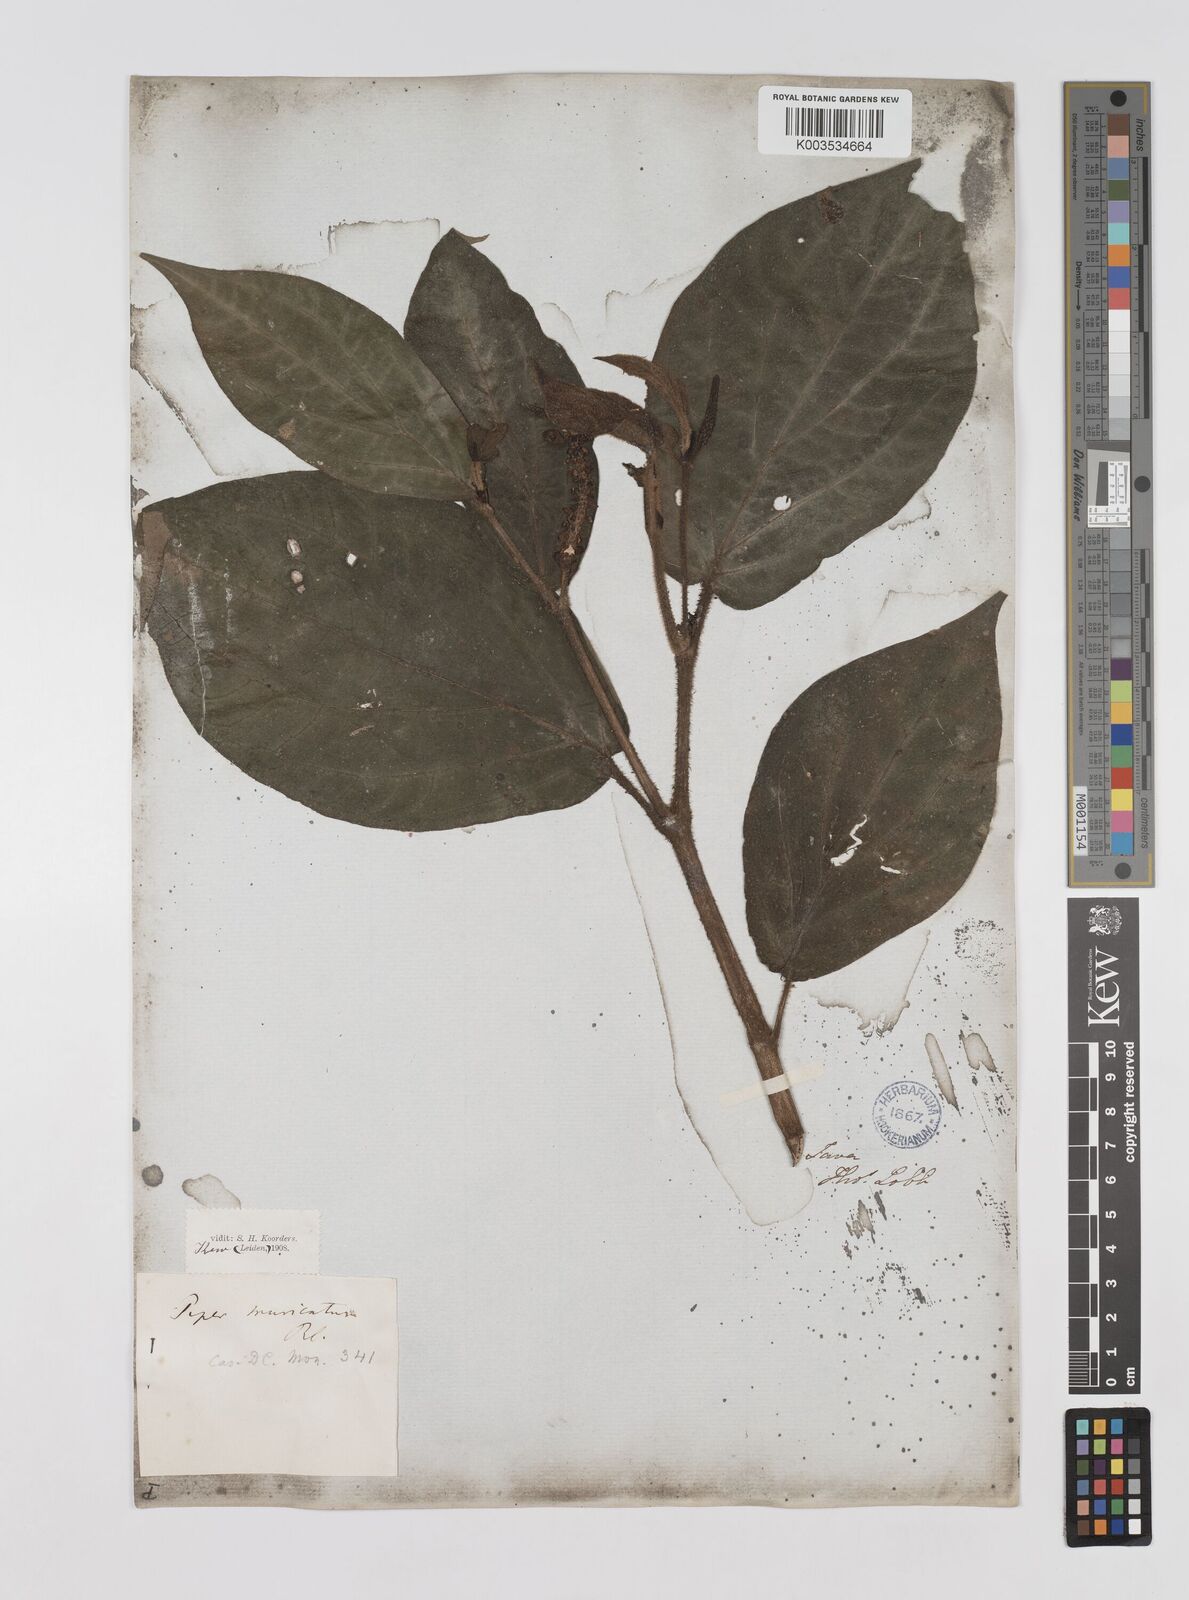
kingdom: Plantae
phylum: Tracheophyta
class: Magnoliopsida
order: Piperales
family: Piperaceae
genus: Piper
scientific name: Piper muricatum
